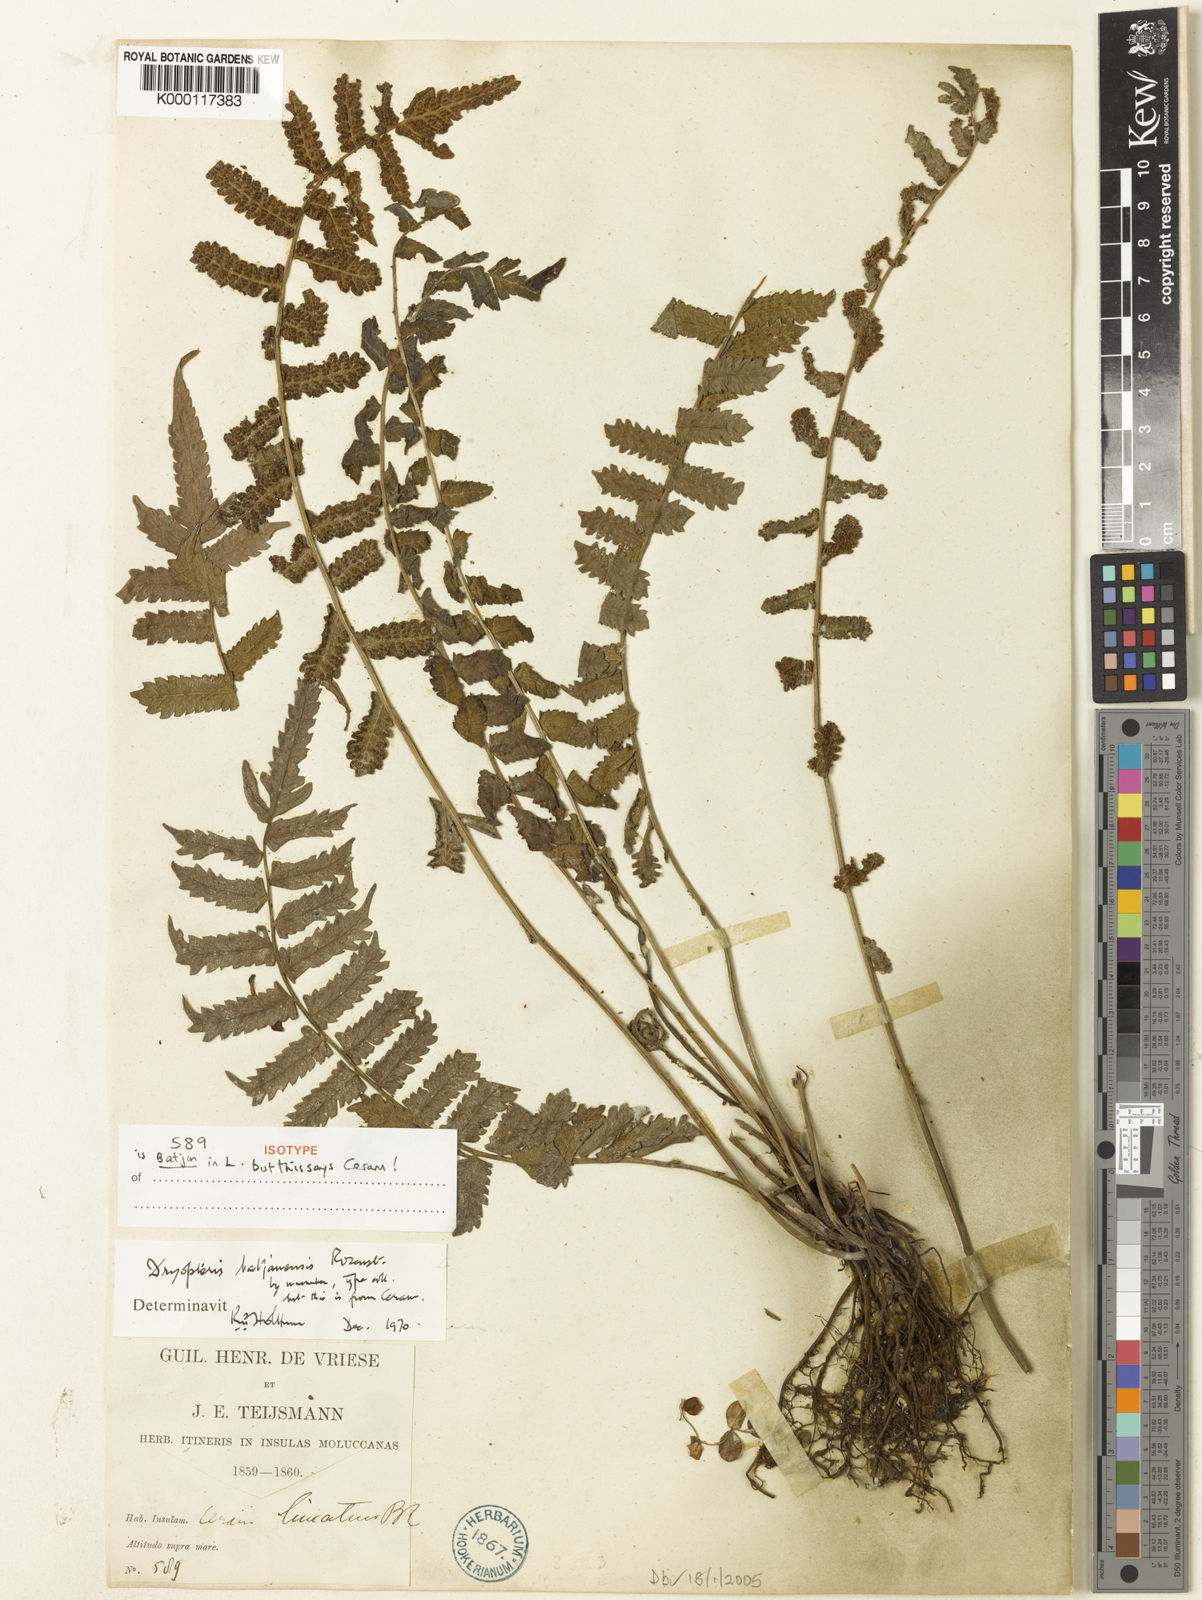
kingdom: Plantae
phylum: Tracheophyta
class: Polypodiopsida
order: Polypodiales
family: Thelypteridaceae
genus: Sphaerostephanos
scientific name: Sphaerostephanos batjanensis
